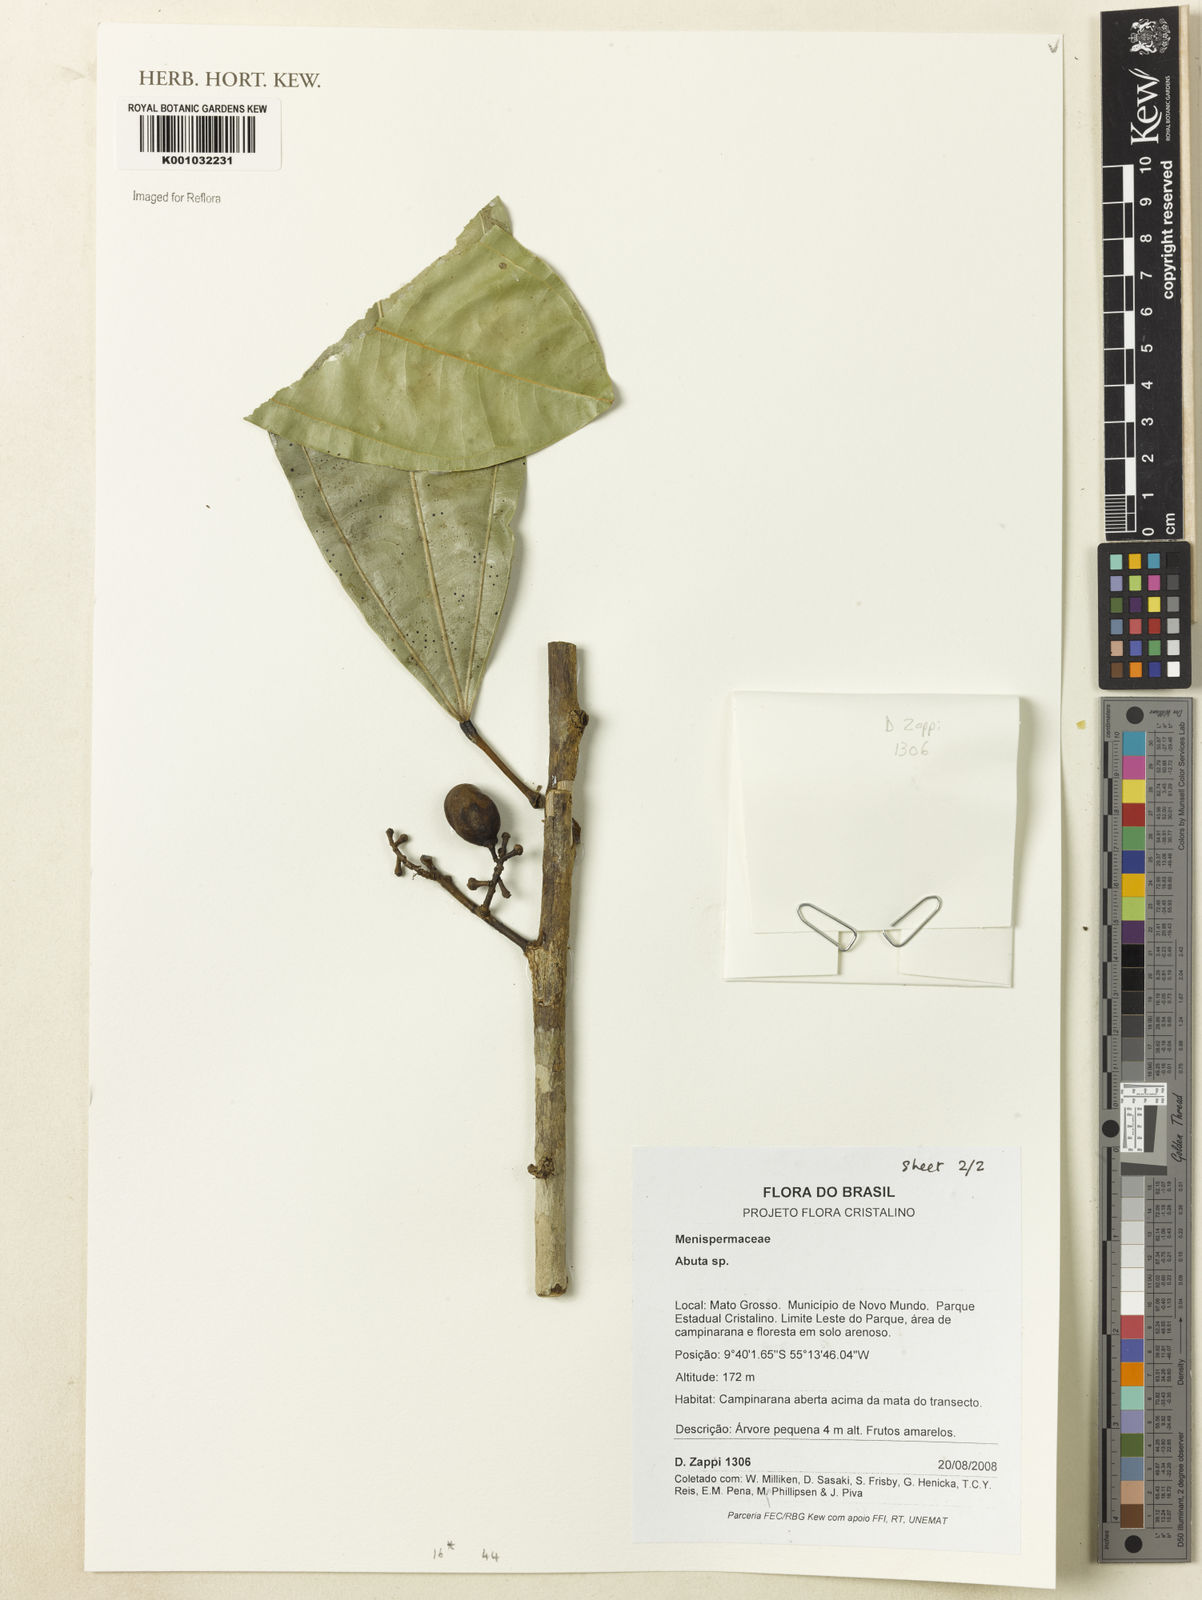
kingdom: Plantae
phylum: Tracheophyta
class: Magnoliopsida
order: Ranunculales
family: Menispermaceae
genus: Abuta
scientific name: Abuta
